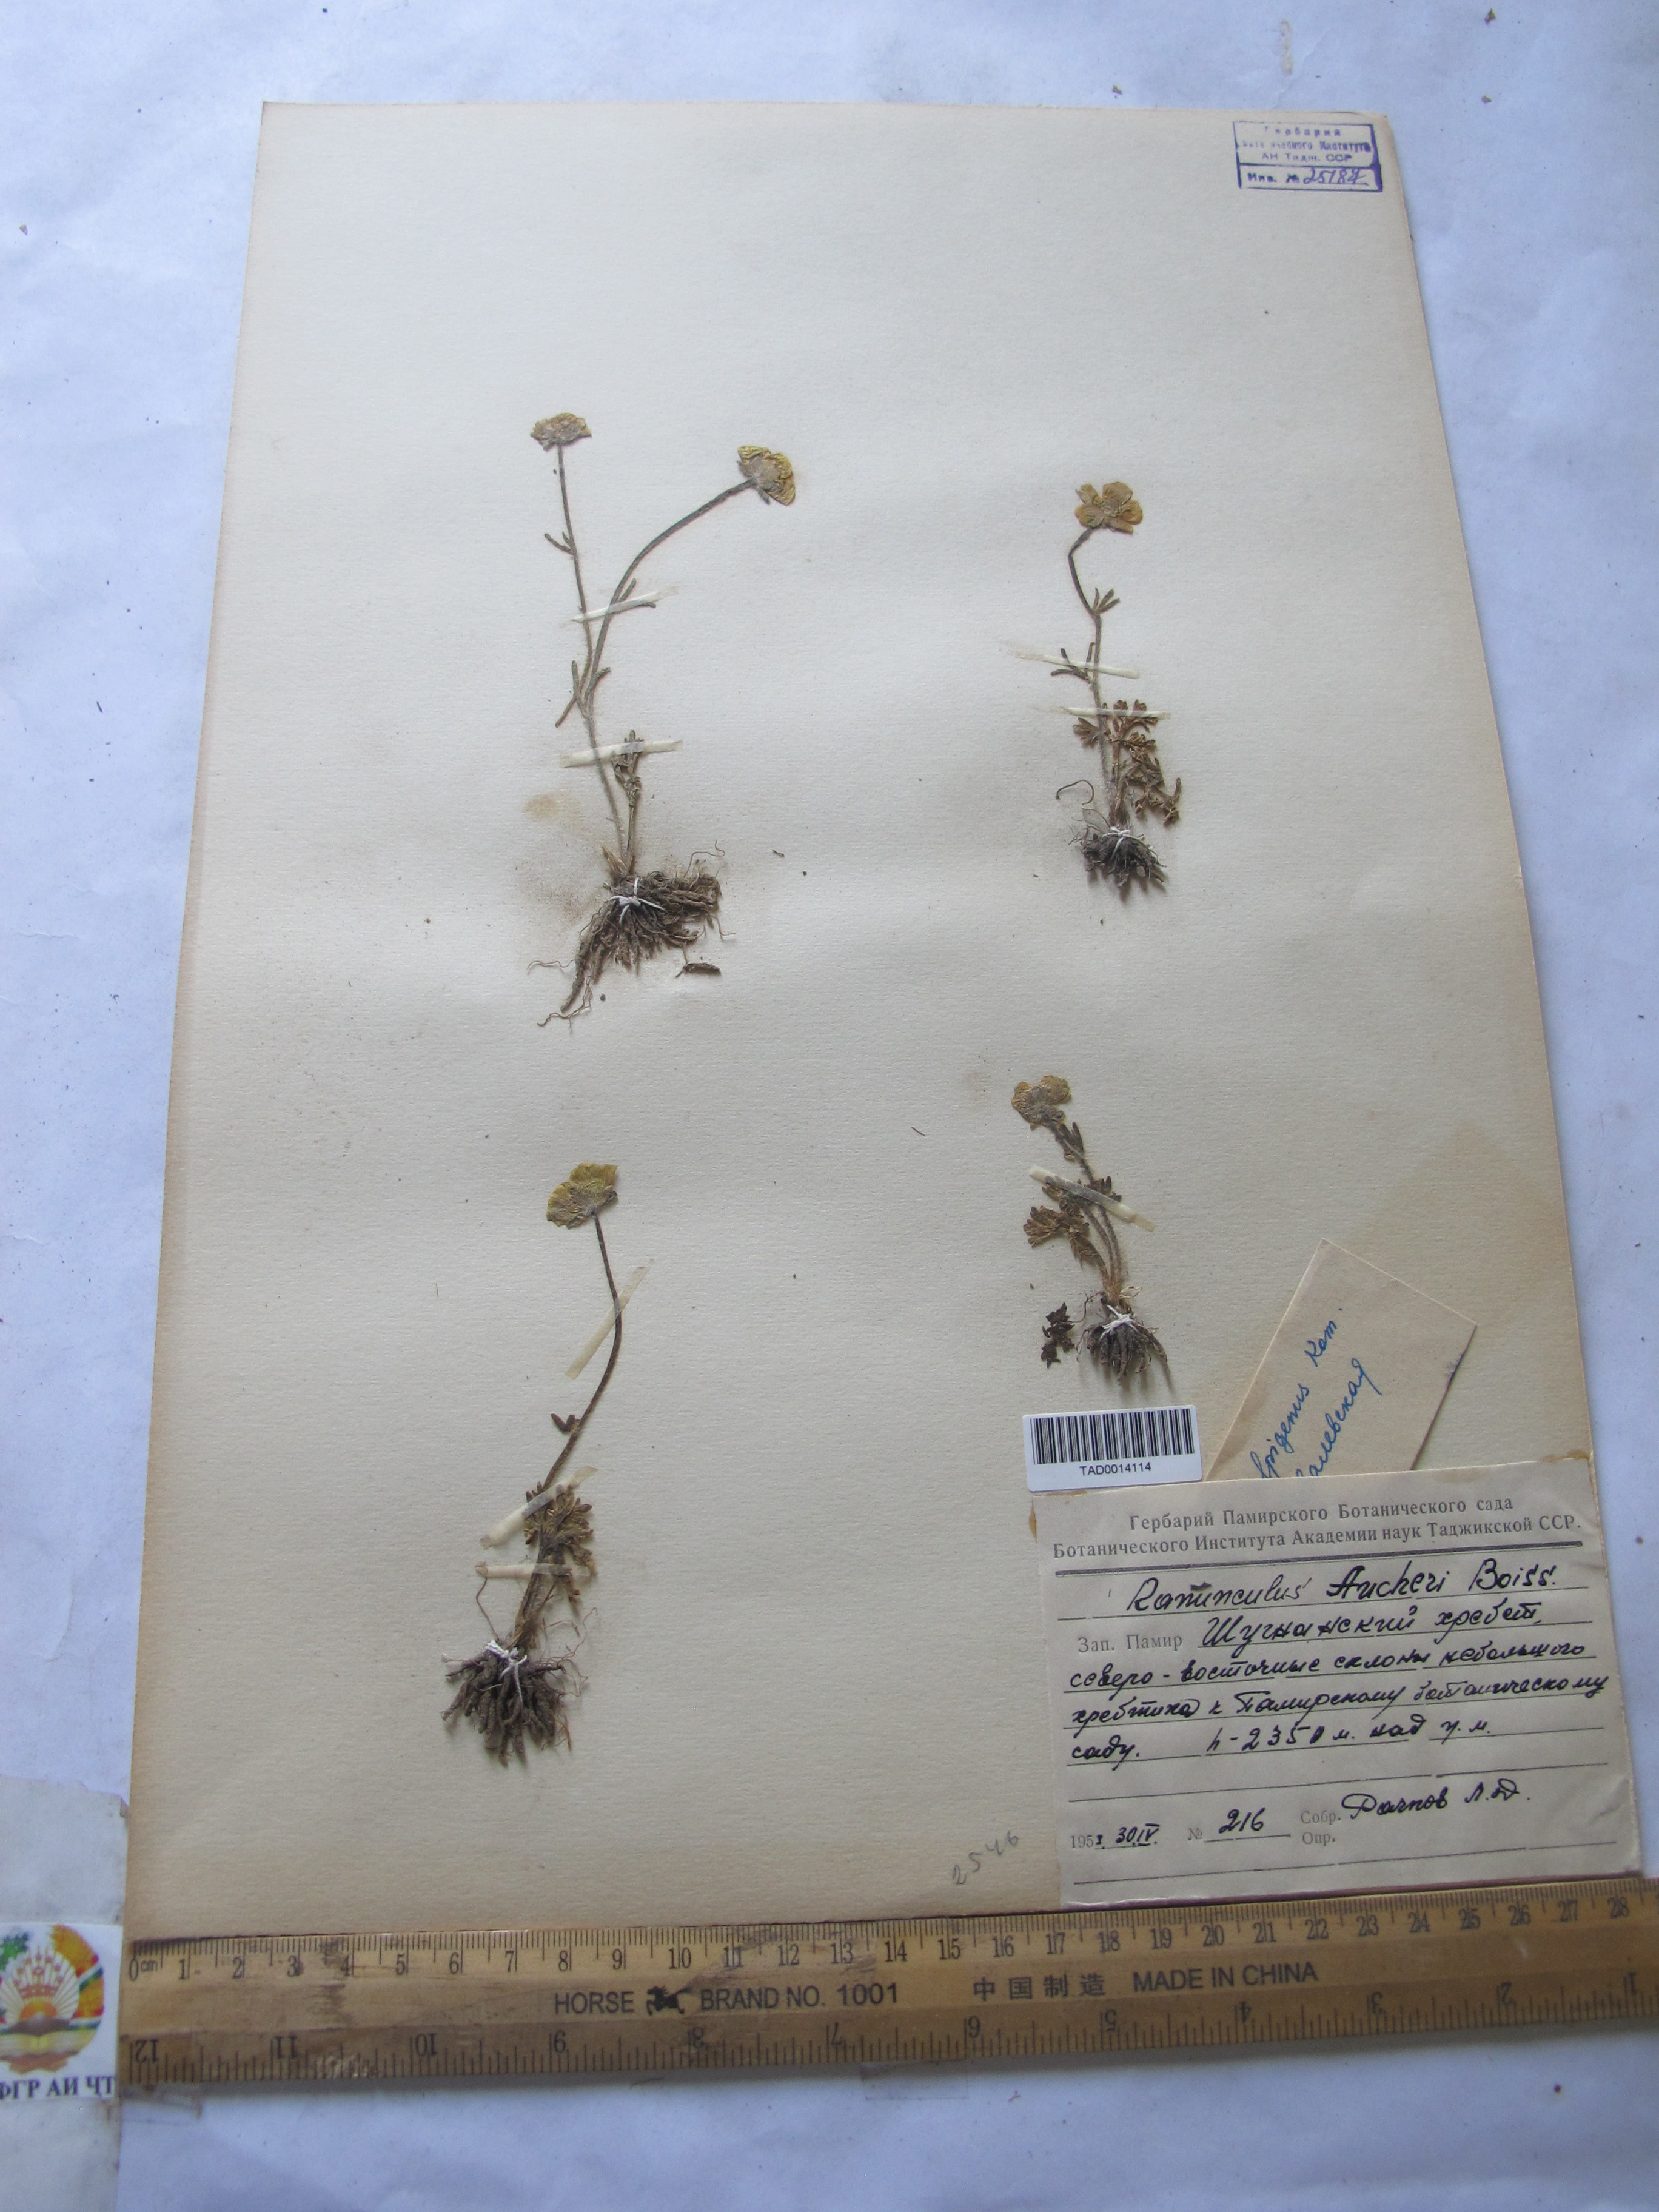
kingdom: Plantae
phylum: Tracheophyta
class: Magnoliopsida
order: Ranunculales
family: Ranunculaceae
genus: Ranunculus
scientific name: Ranunculus alpigenus
